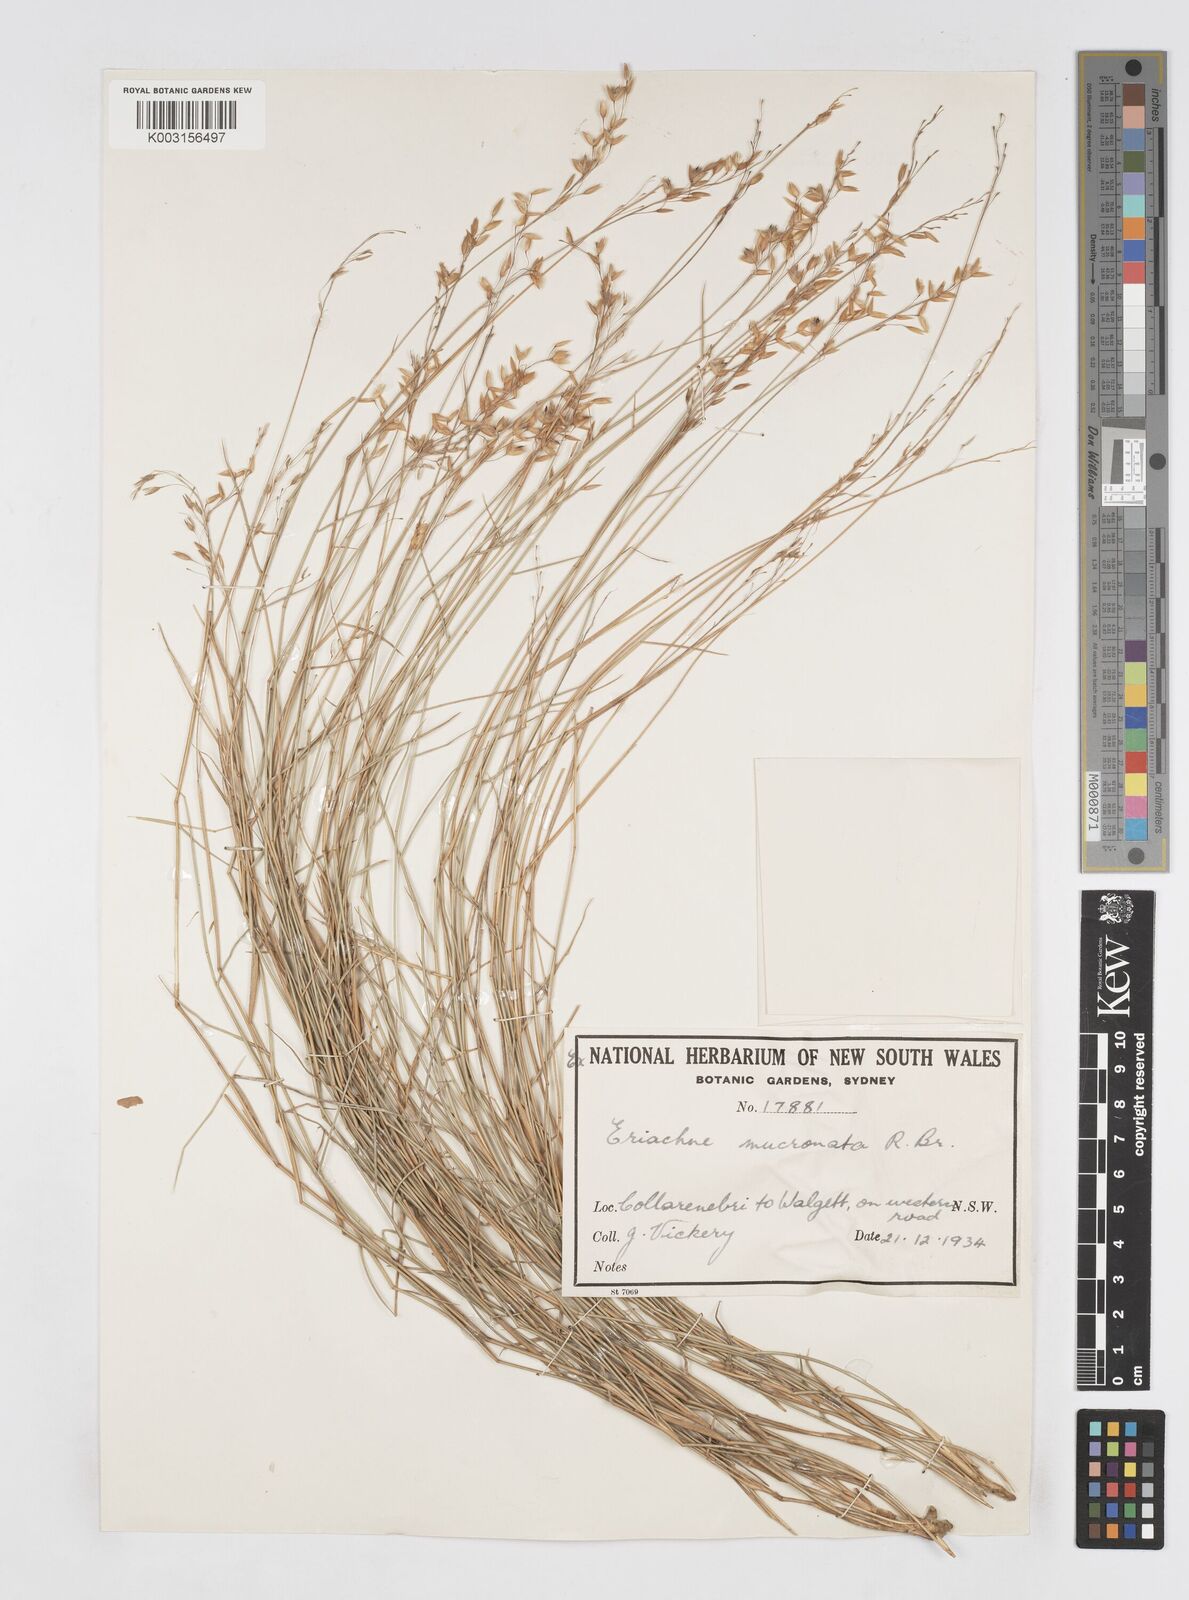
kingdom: Plantae
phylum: Tracheophyta
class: Liliopsida
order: Poales
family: Poaceae
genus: Eriachne
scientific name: Eriachne mucronata
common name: Mountain wanderrie grass
